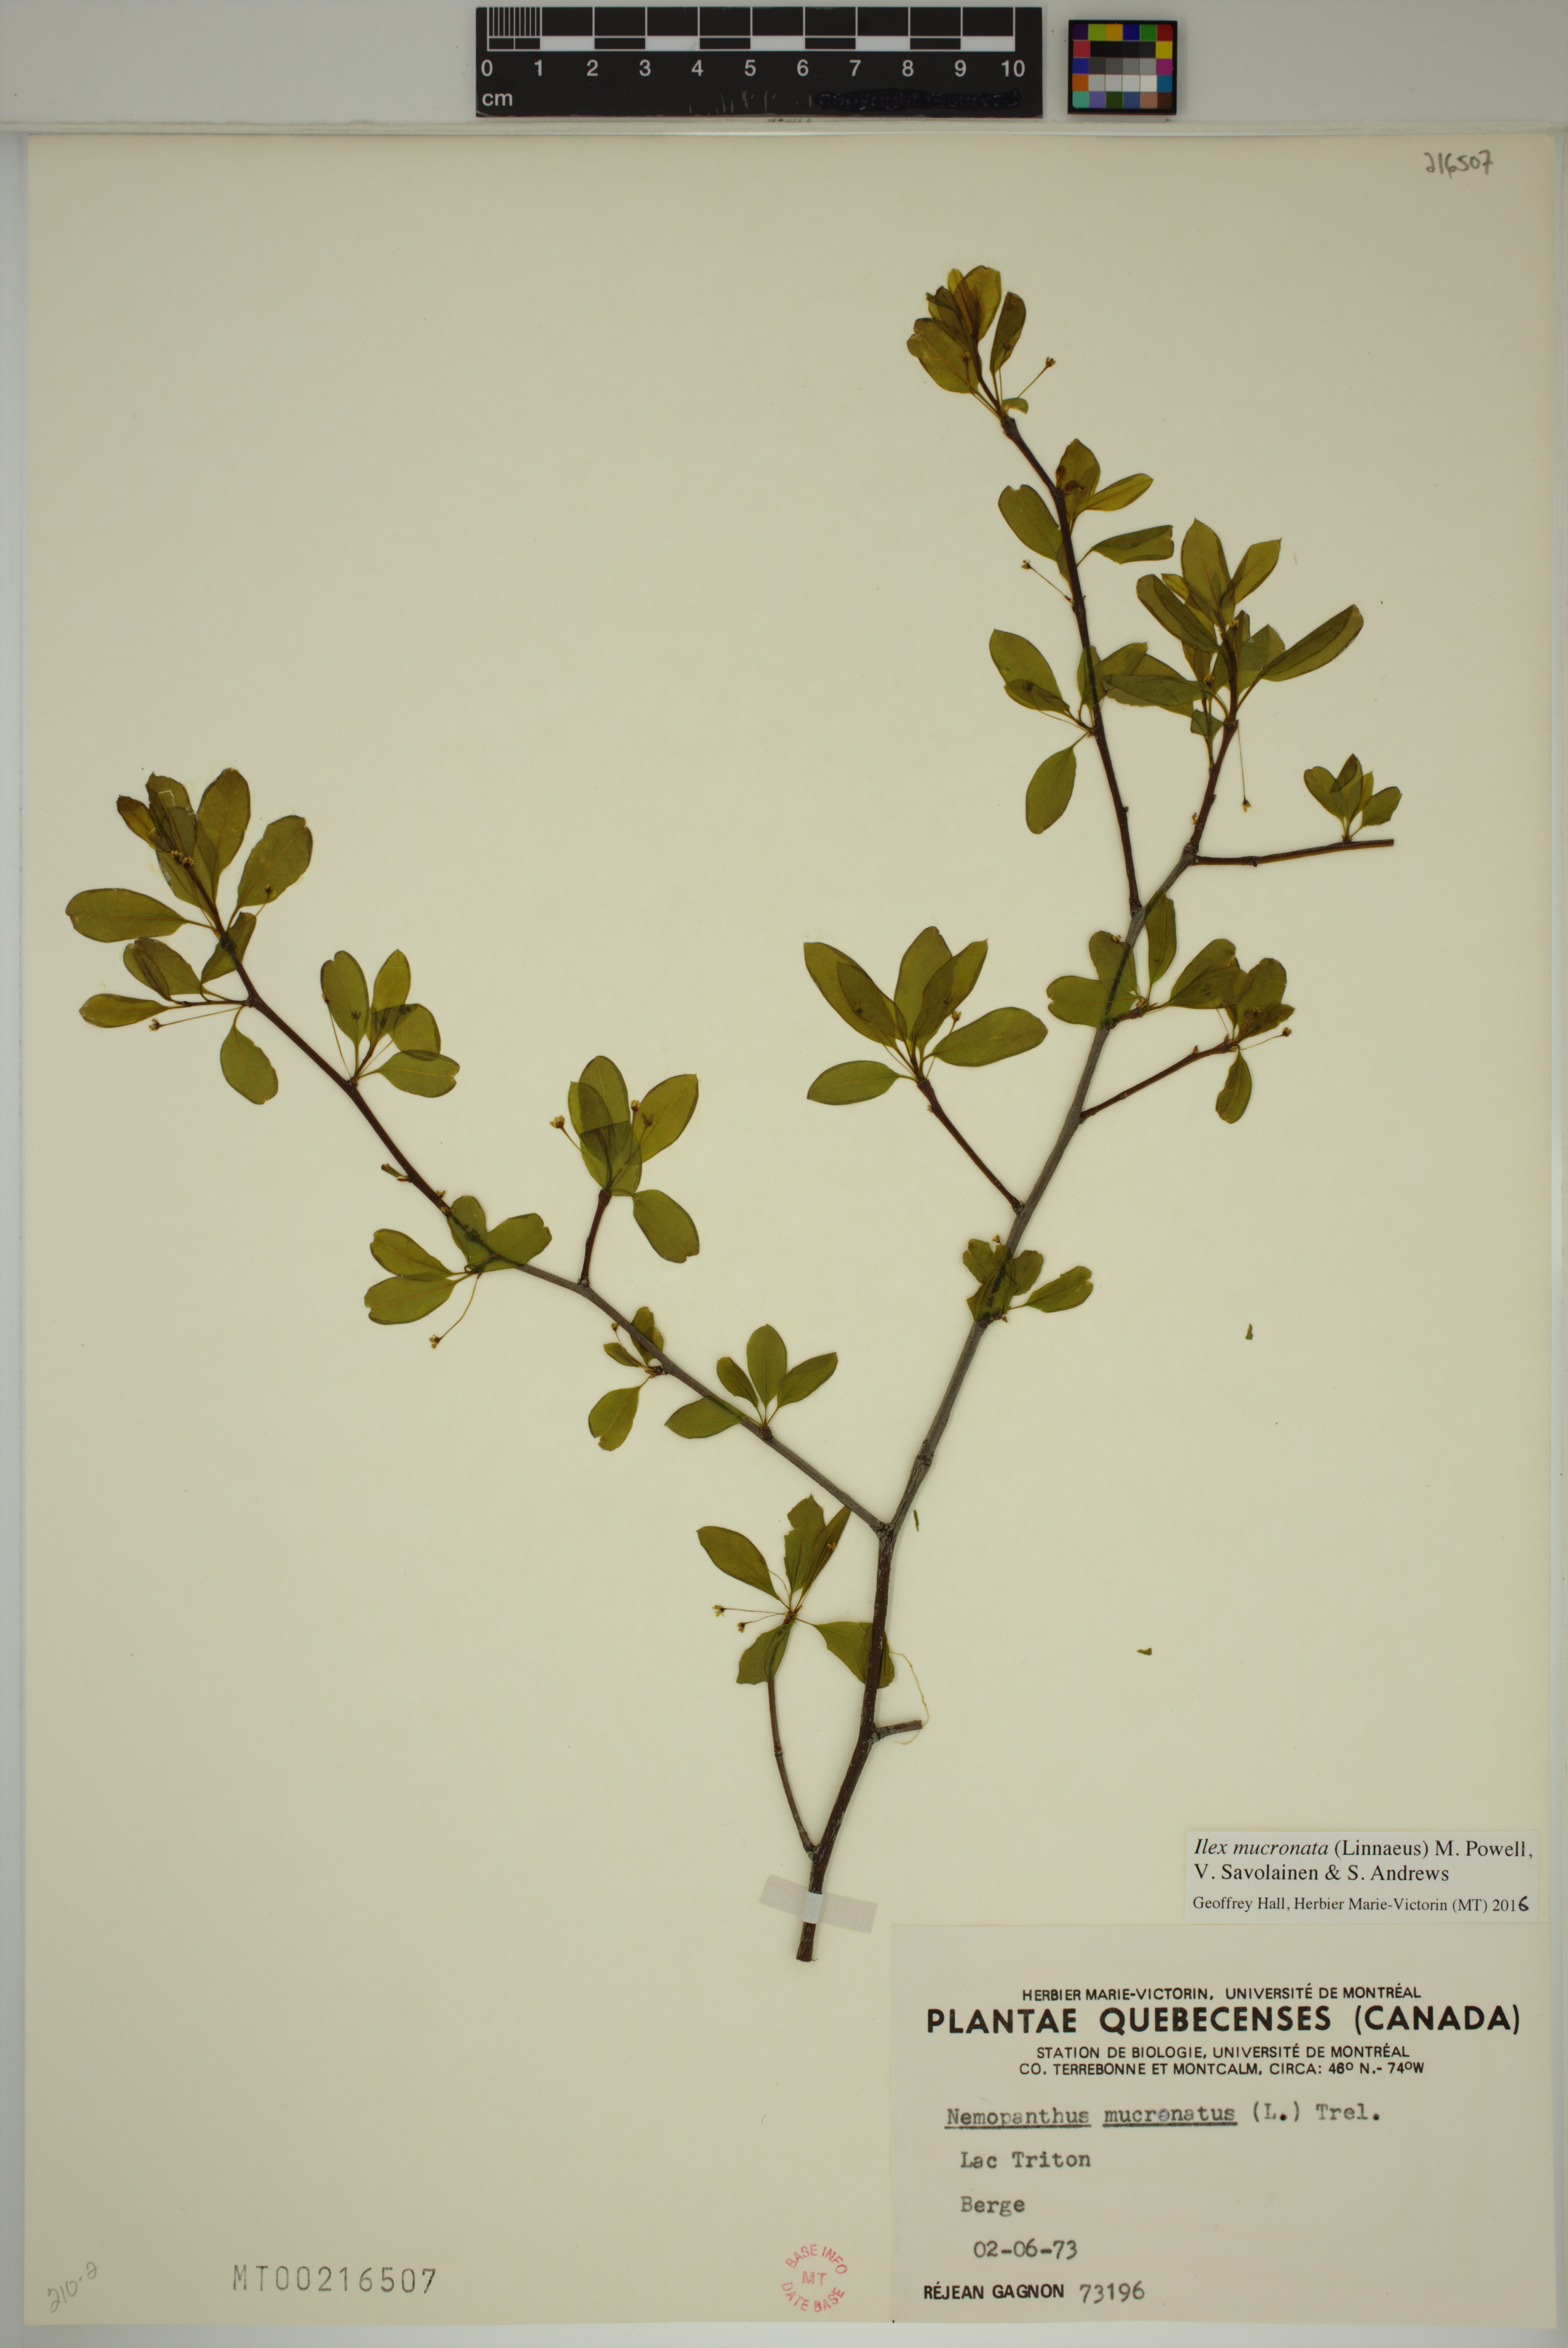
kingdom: Plantae
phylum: Tracheophyta
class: Magnoliopsida
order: Aquifoliales
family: Aquifoliaceae
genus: Ilex
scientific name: Ilex mucronata
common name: Catberry
